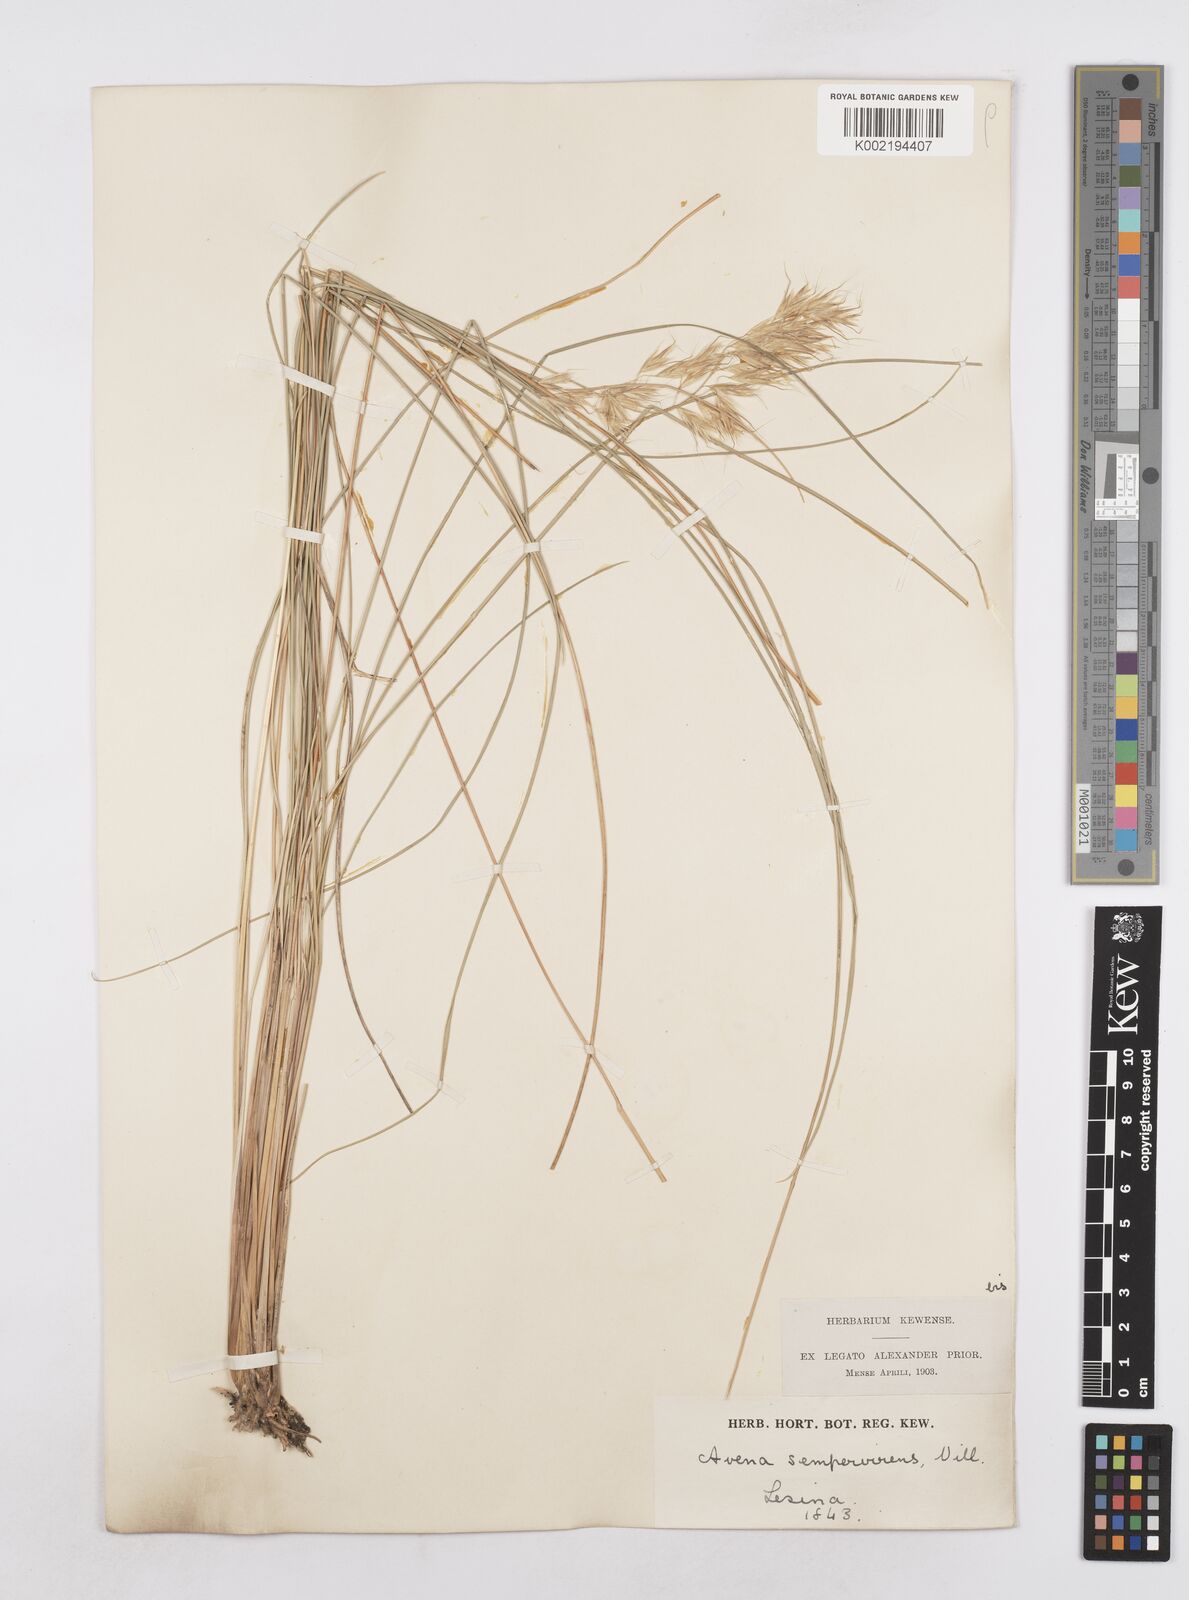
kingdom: Plantae
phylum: Tracheophyta
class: Liliopsida
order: Poales
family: Poaceae
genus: Helictotrichon
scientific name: Helictotrichon
